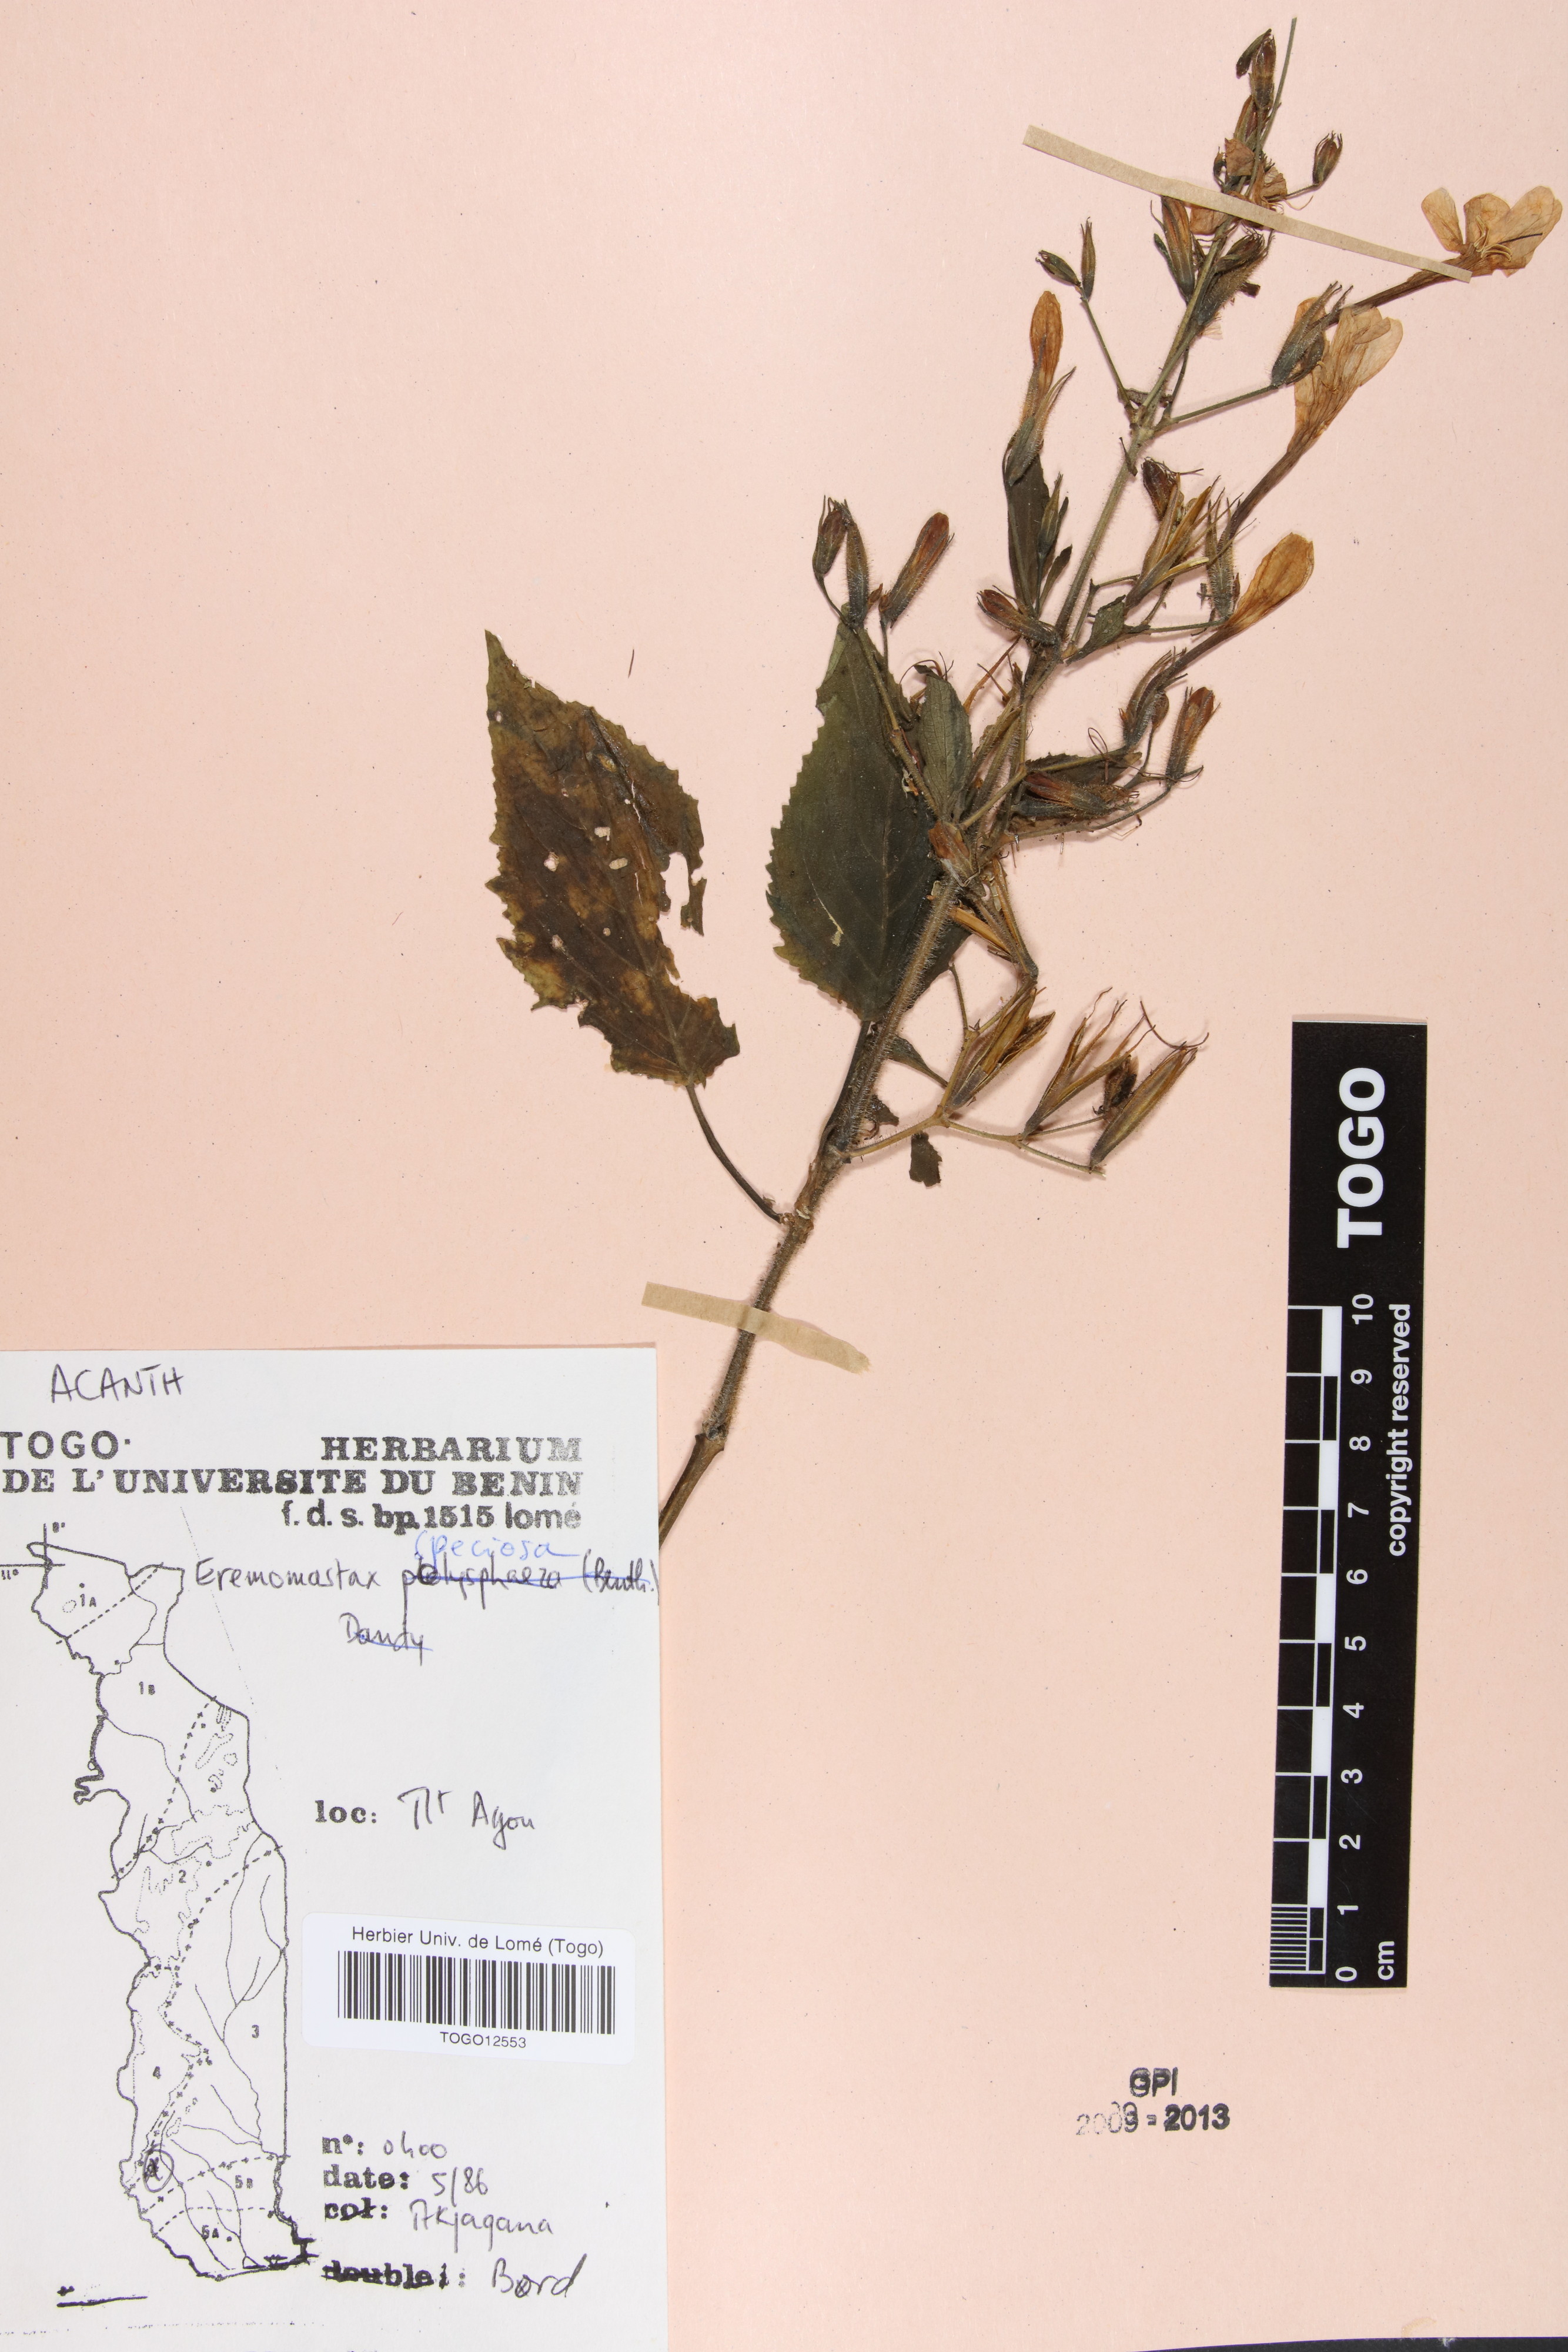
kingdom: Plantae
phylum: Tracheophyta
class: Magnoliopsida
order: Lamiales
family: Acanthaceae
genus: Eremomastax
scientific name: Eremomastax speciosa
